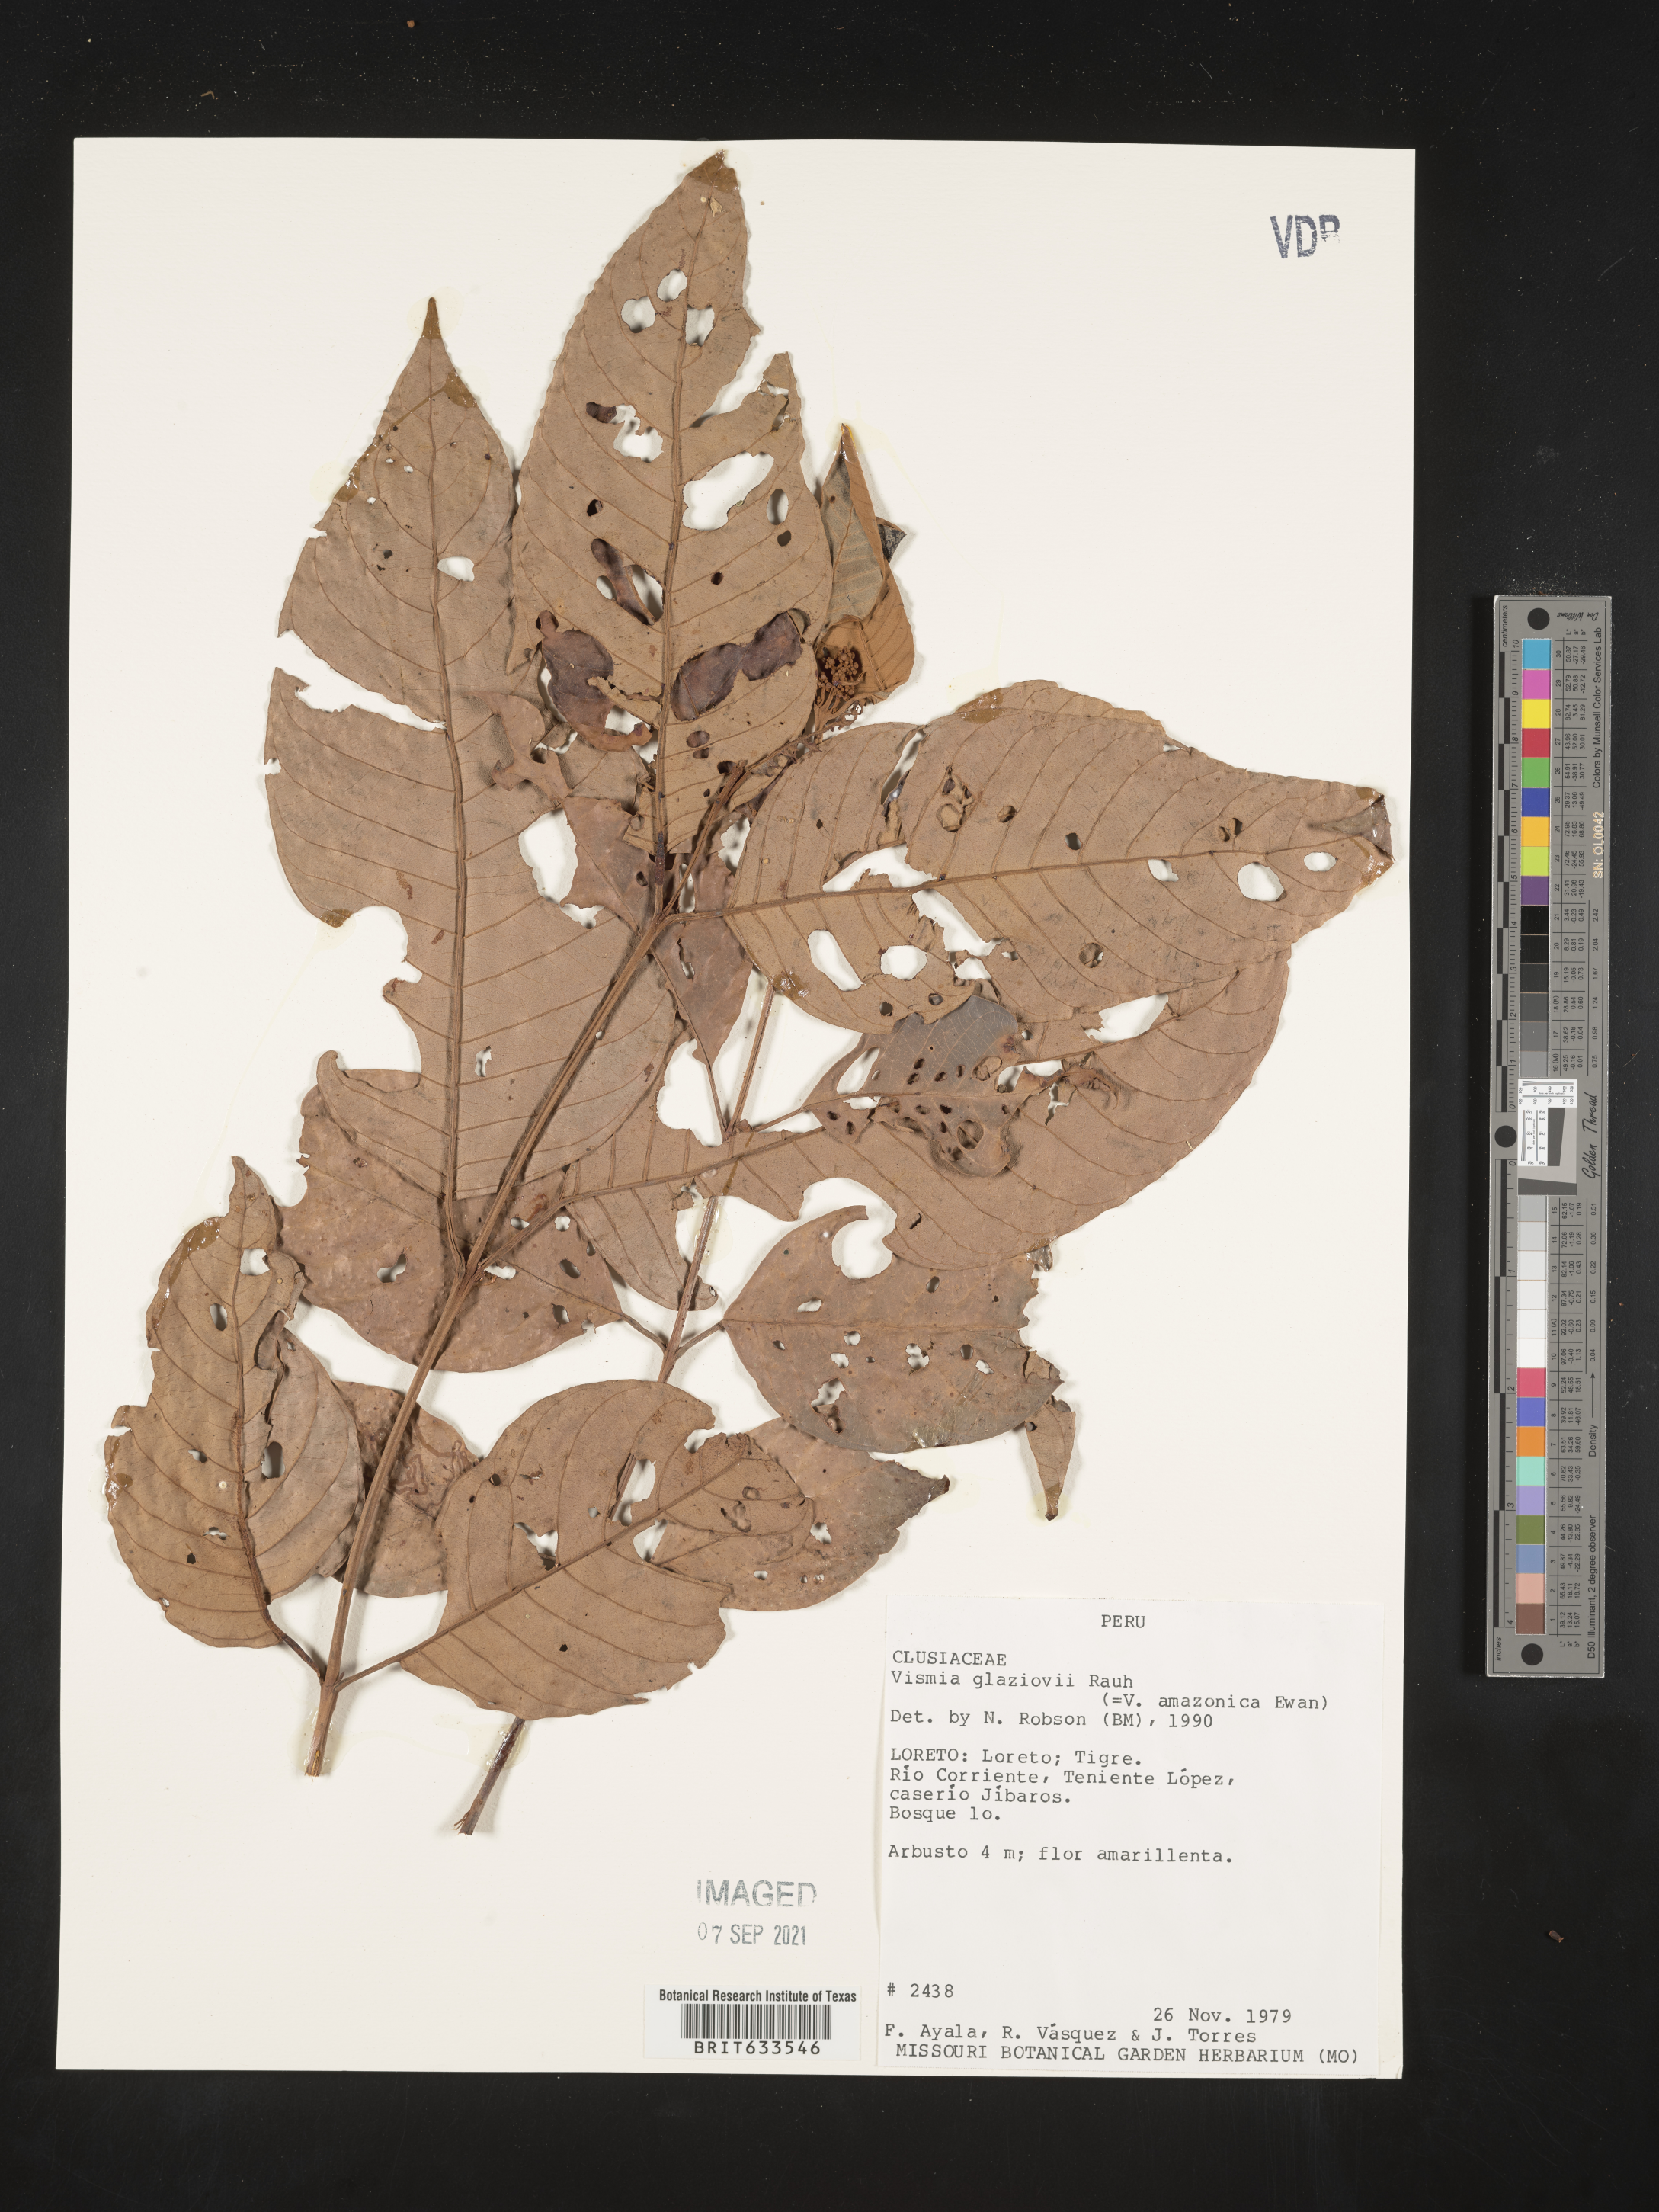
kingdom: Plantae
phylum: Tracheophyta
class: Magnoliopsida
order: Malpighiales
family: Hypericaceae
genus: Vismia
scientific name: Vismia
